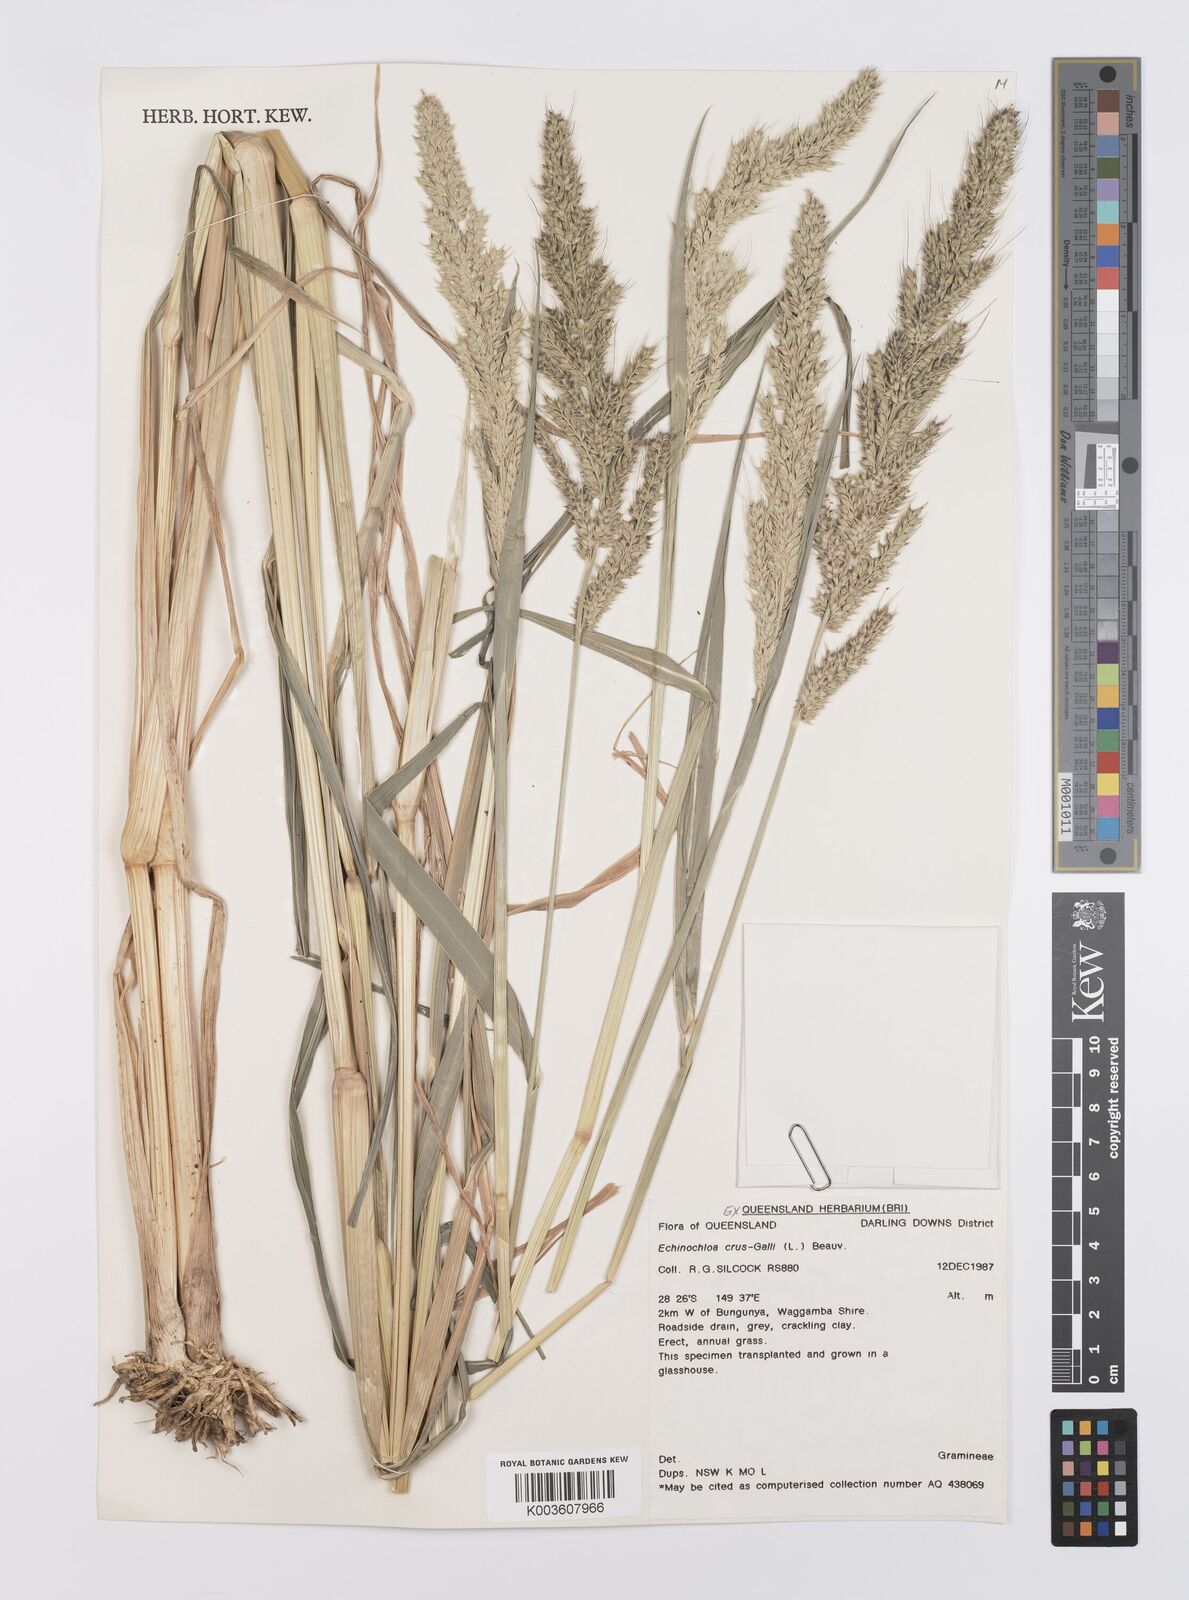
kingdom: Plantae
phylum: Tracheophyta
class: Liliopsida
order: Poales
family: Poaceae
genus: Echinochloa
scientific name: Echinochloa crus-galli
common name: Cockspur
